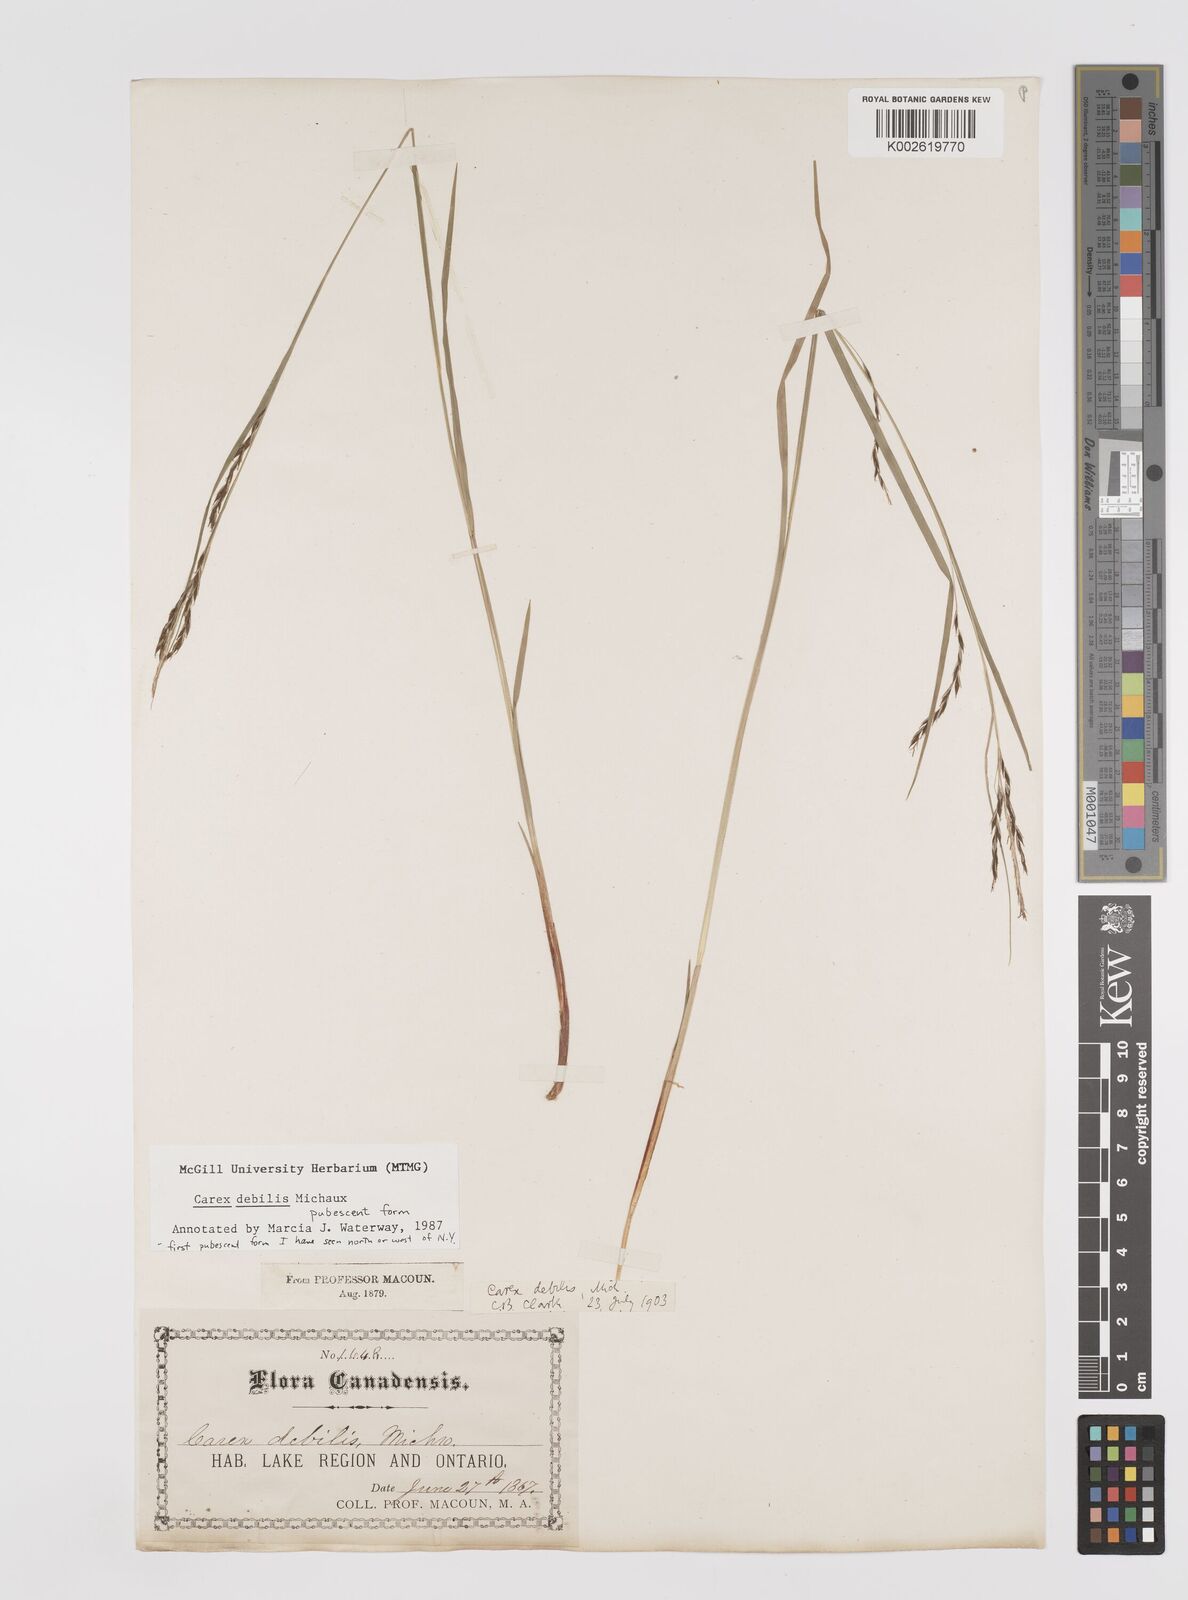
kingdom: Plantae
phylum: Tracheophyta
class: Liliopsida
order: Poales
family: Cyperaceae
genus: Carex
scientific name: Carex debilis
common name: White-edge sedge
